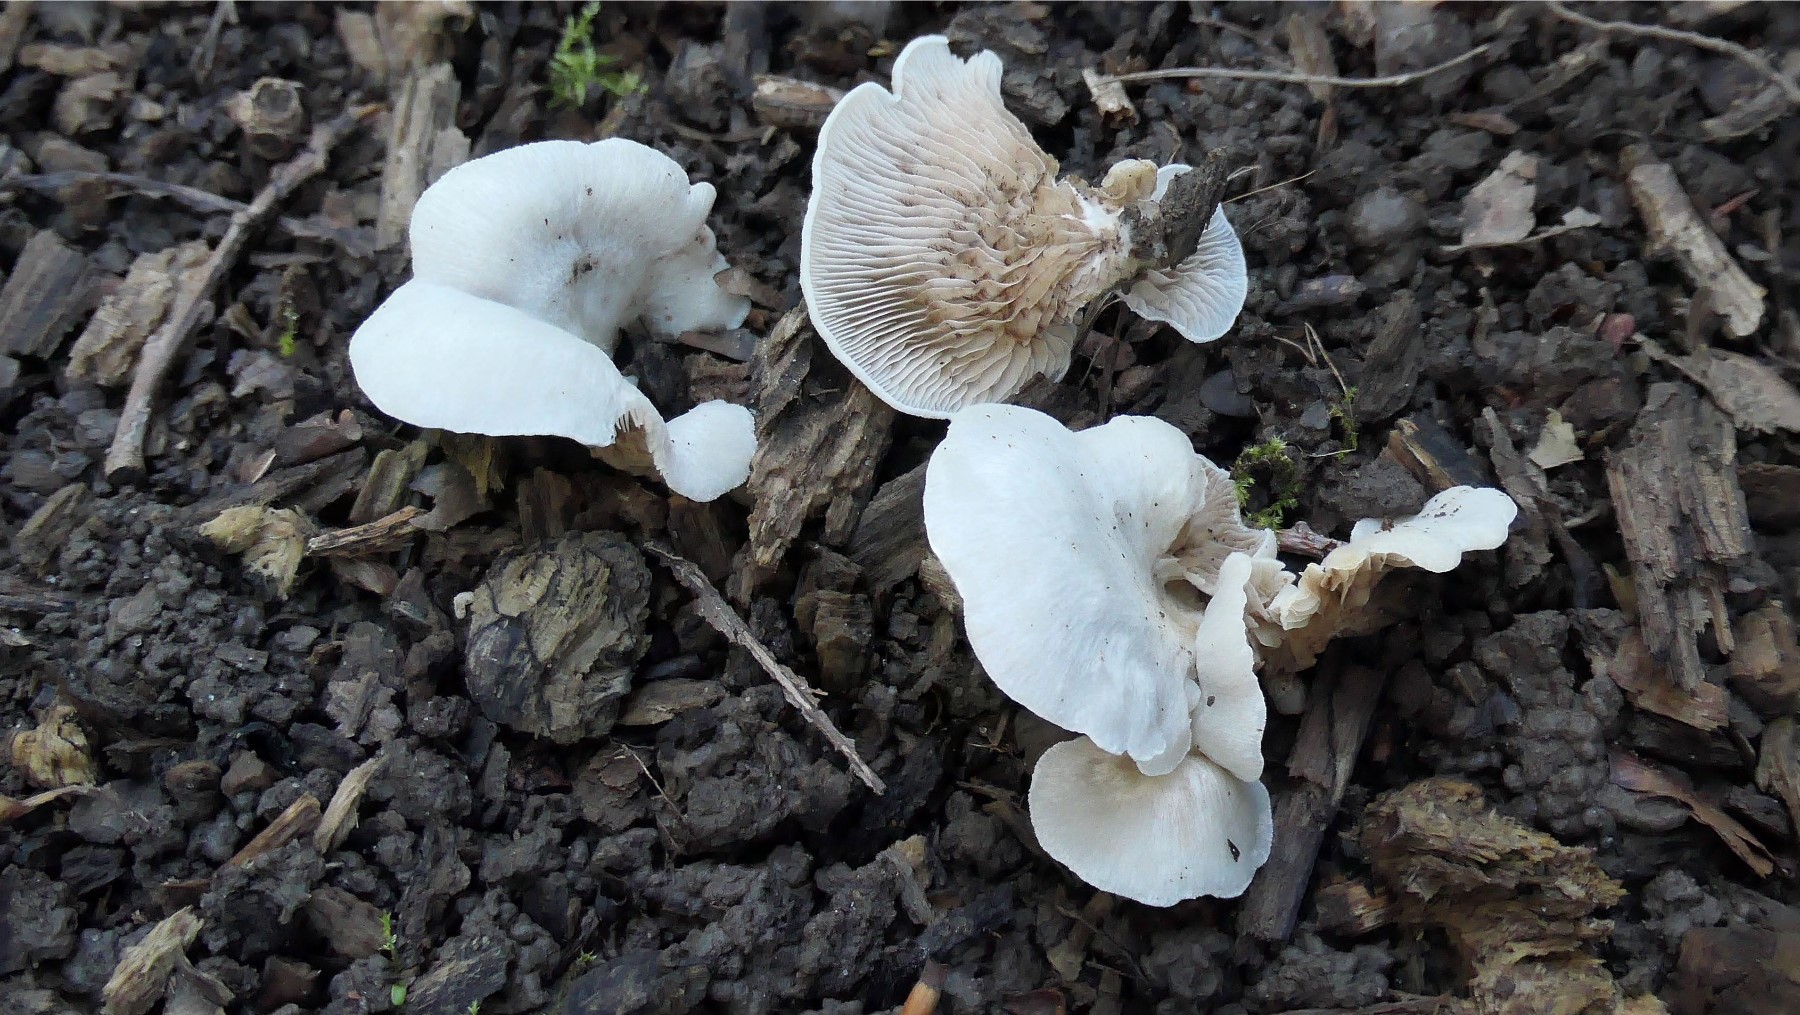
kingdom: Fungi
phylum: Basidiomycota
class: Agaricomycetes
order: Agaricales
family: Crepidotaceae
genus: Crepidotus
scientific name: Crepidotus autochthonus
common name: skæv muslingesvamp
